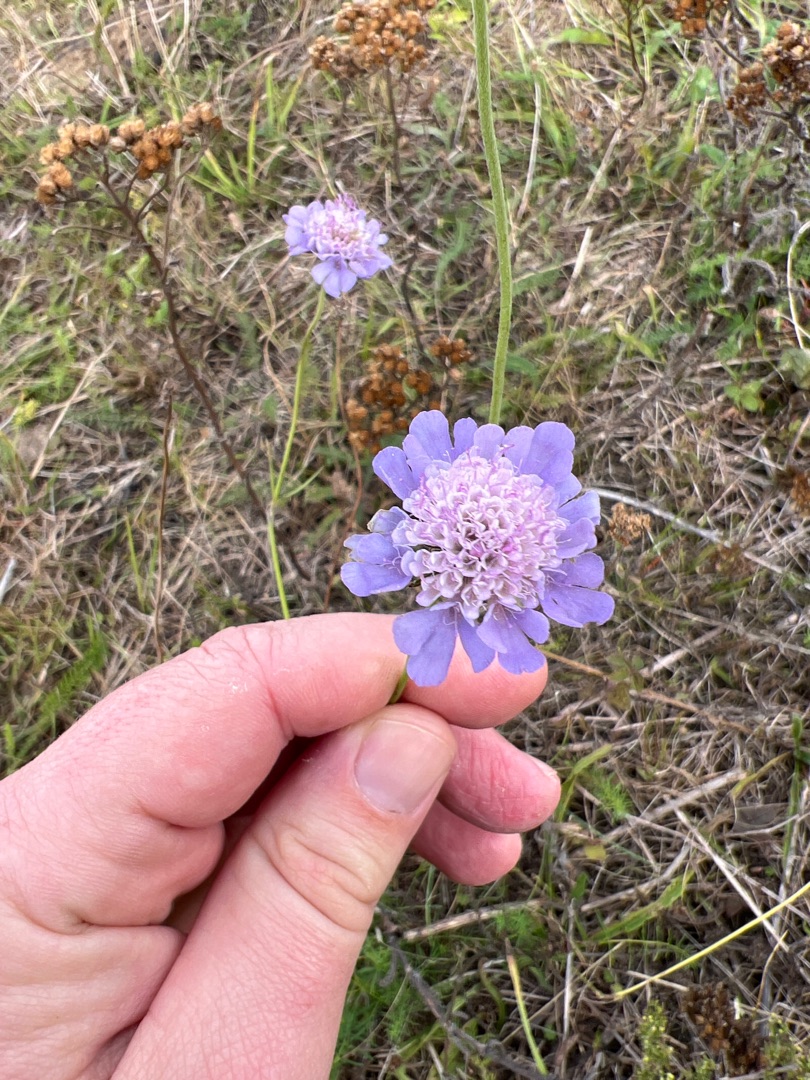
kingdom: Plantae
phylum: Tracheophyta
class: Magnoliopsida
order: Dipsacales
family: Caprifoliaceae
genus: Scabiosa
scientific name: Scabiosa columbaria
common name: Due-skabiose
